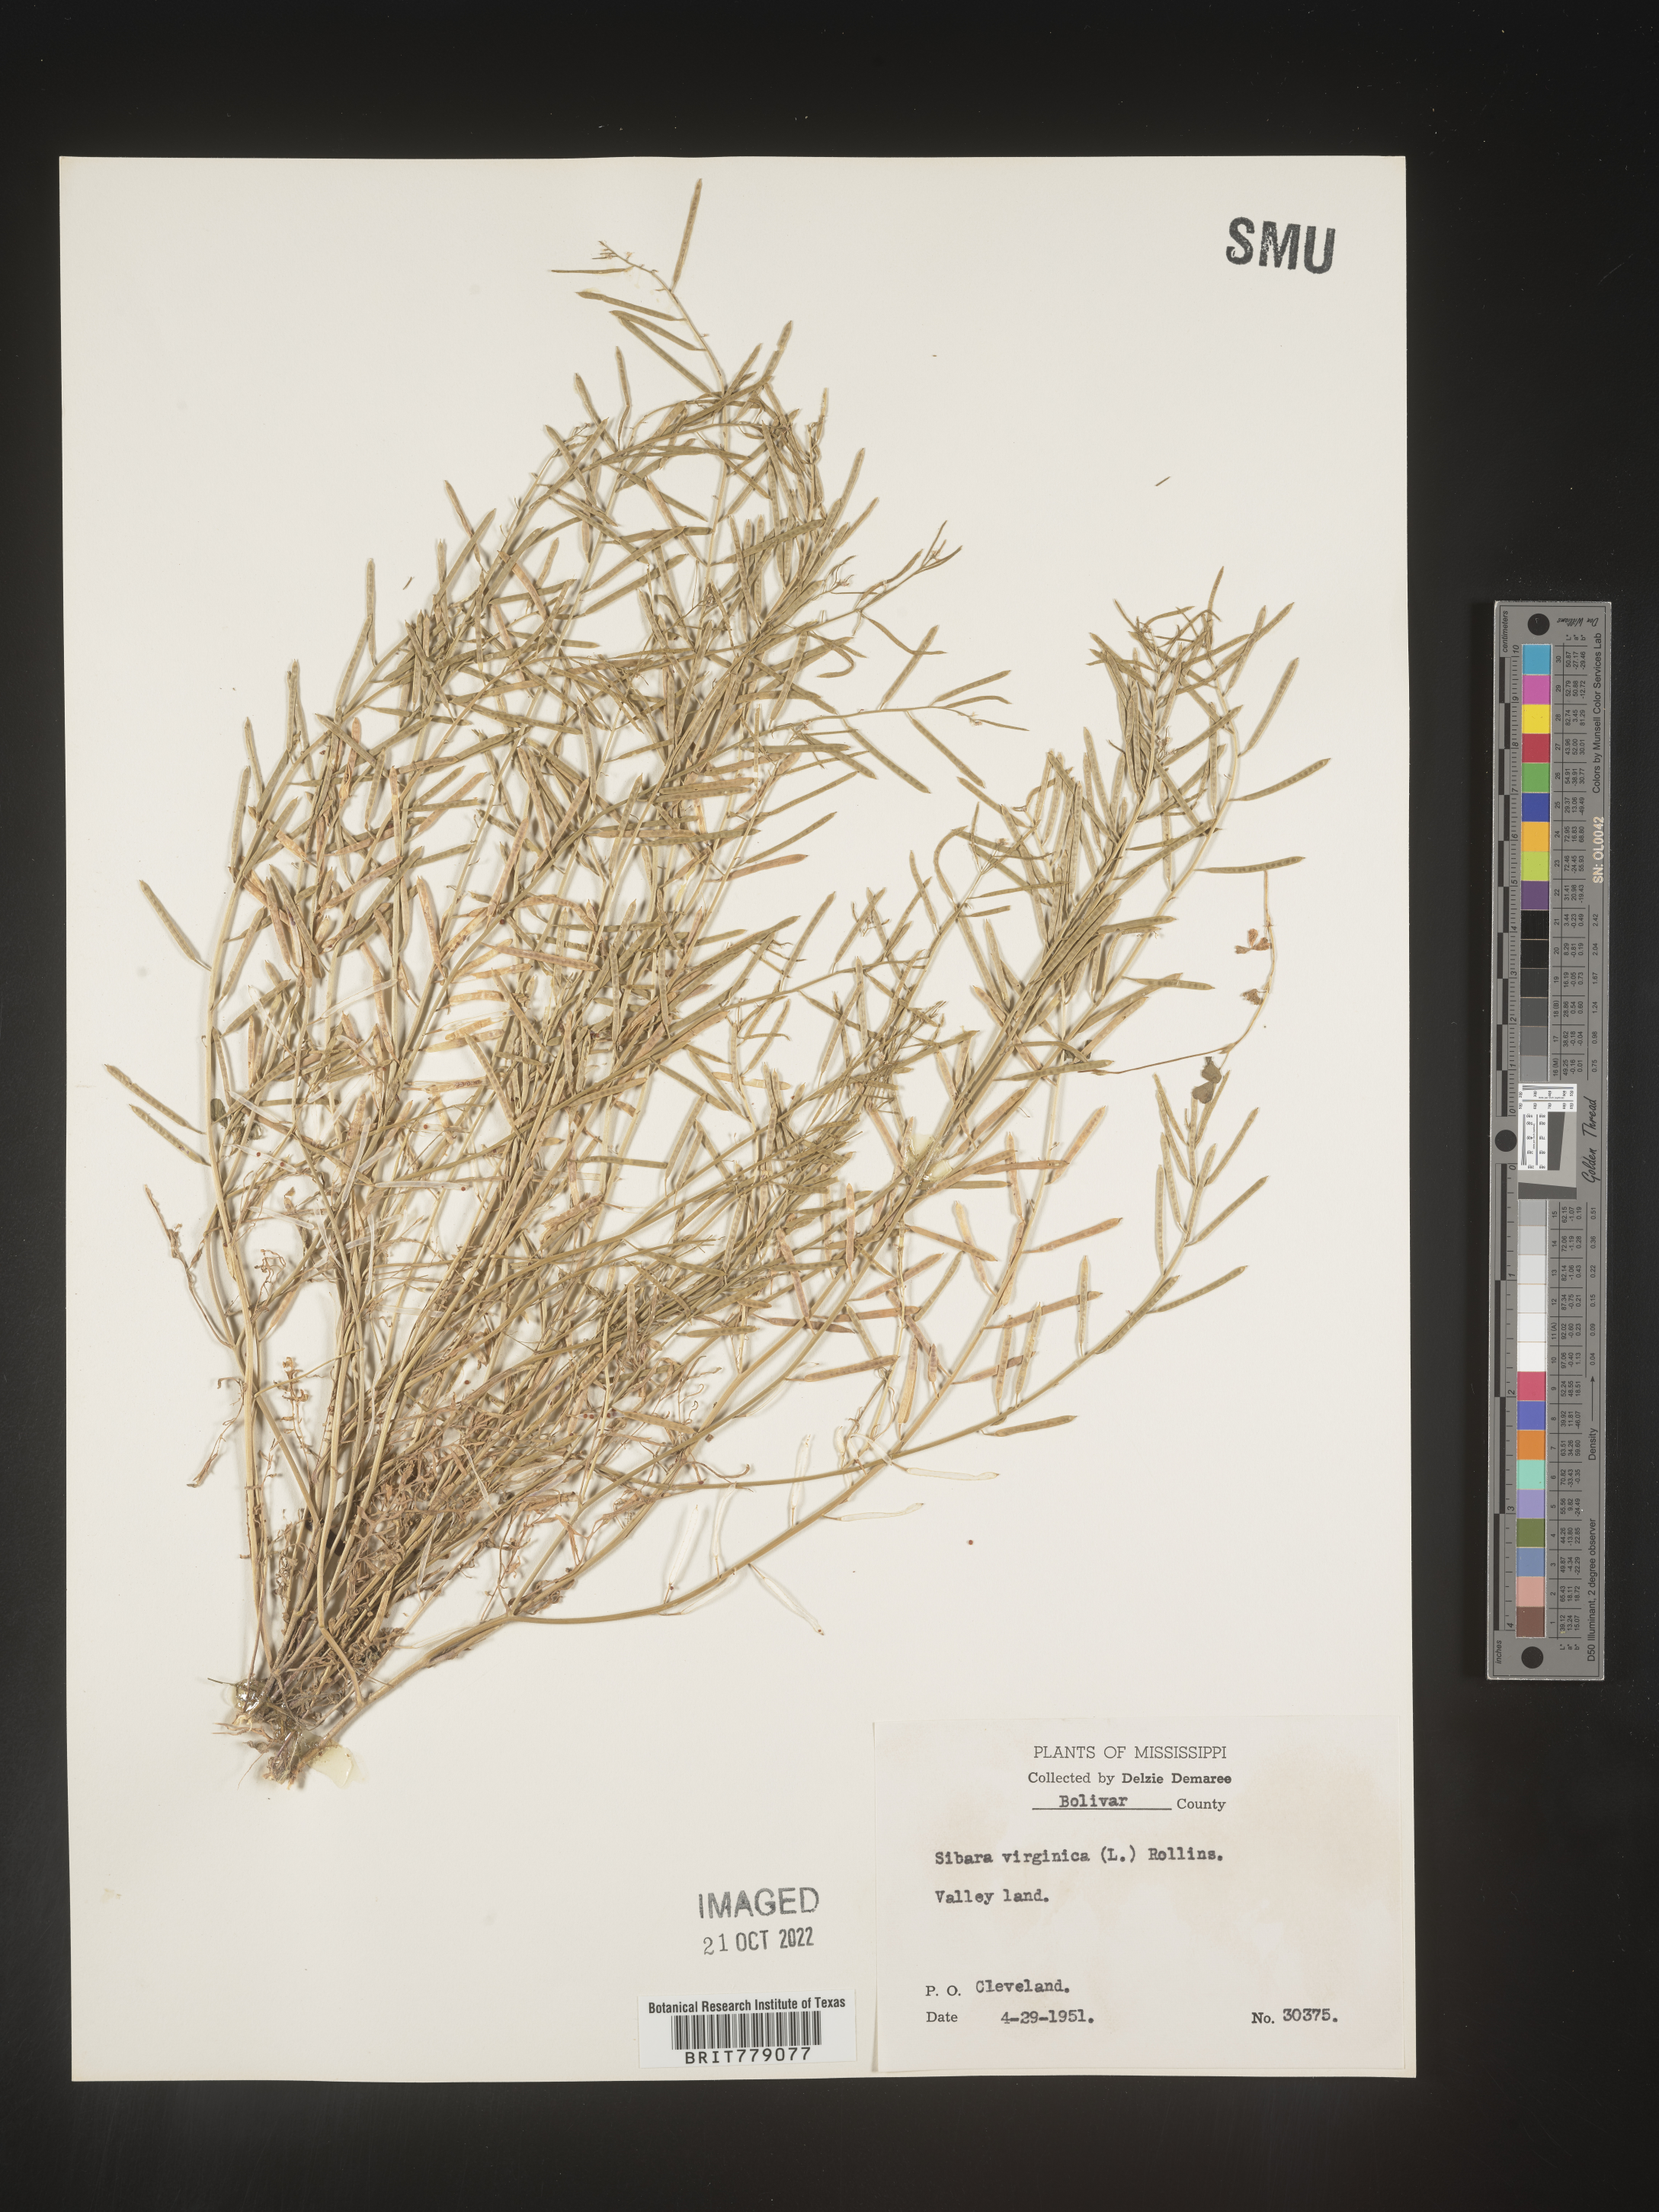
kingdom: Plantae
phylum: Tracheophyta
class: Magnoliopsida
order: Brassicales
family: Brassicaceae
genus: Sibara
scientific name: Sibara
